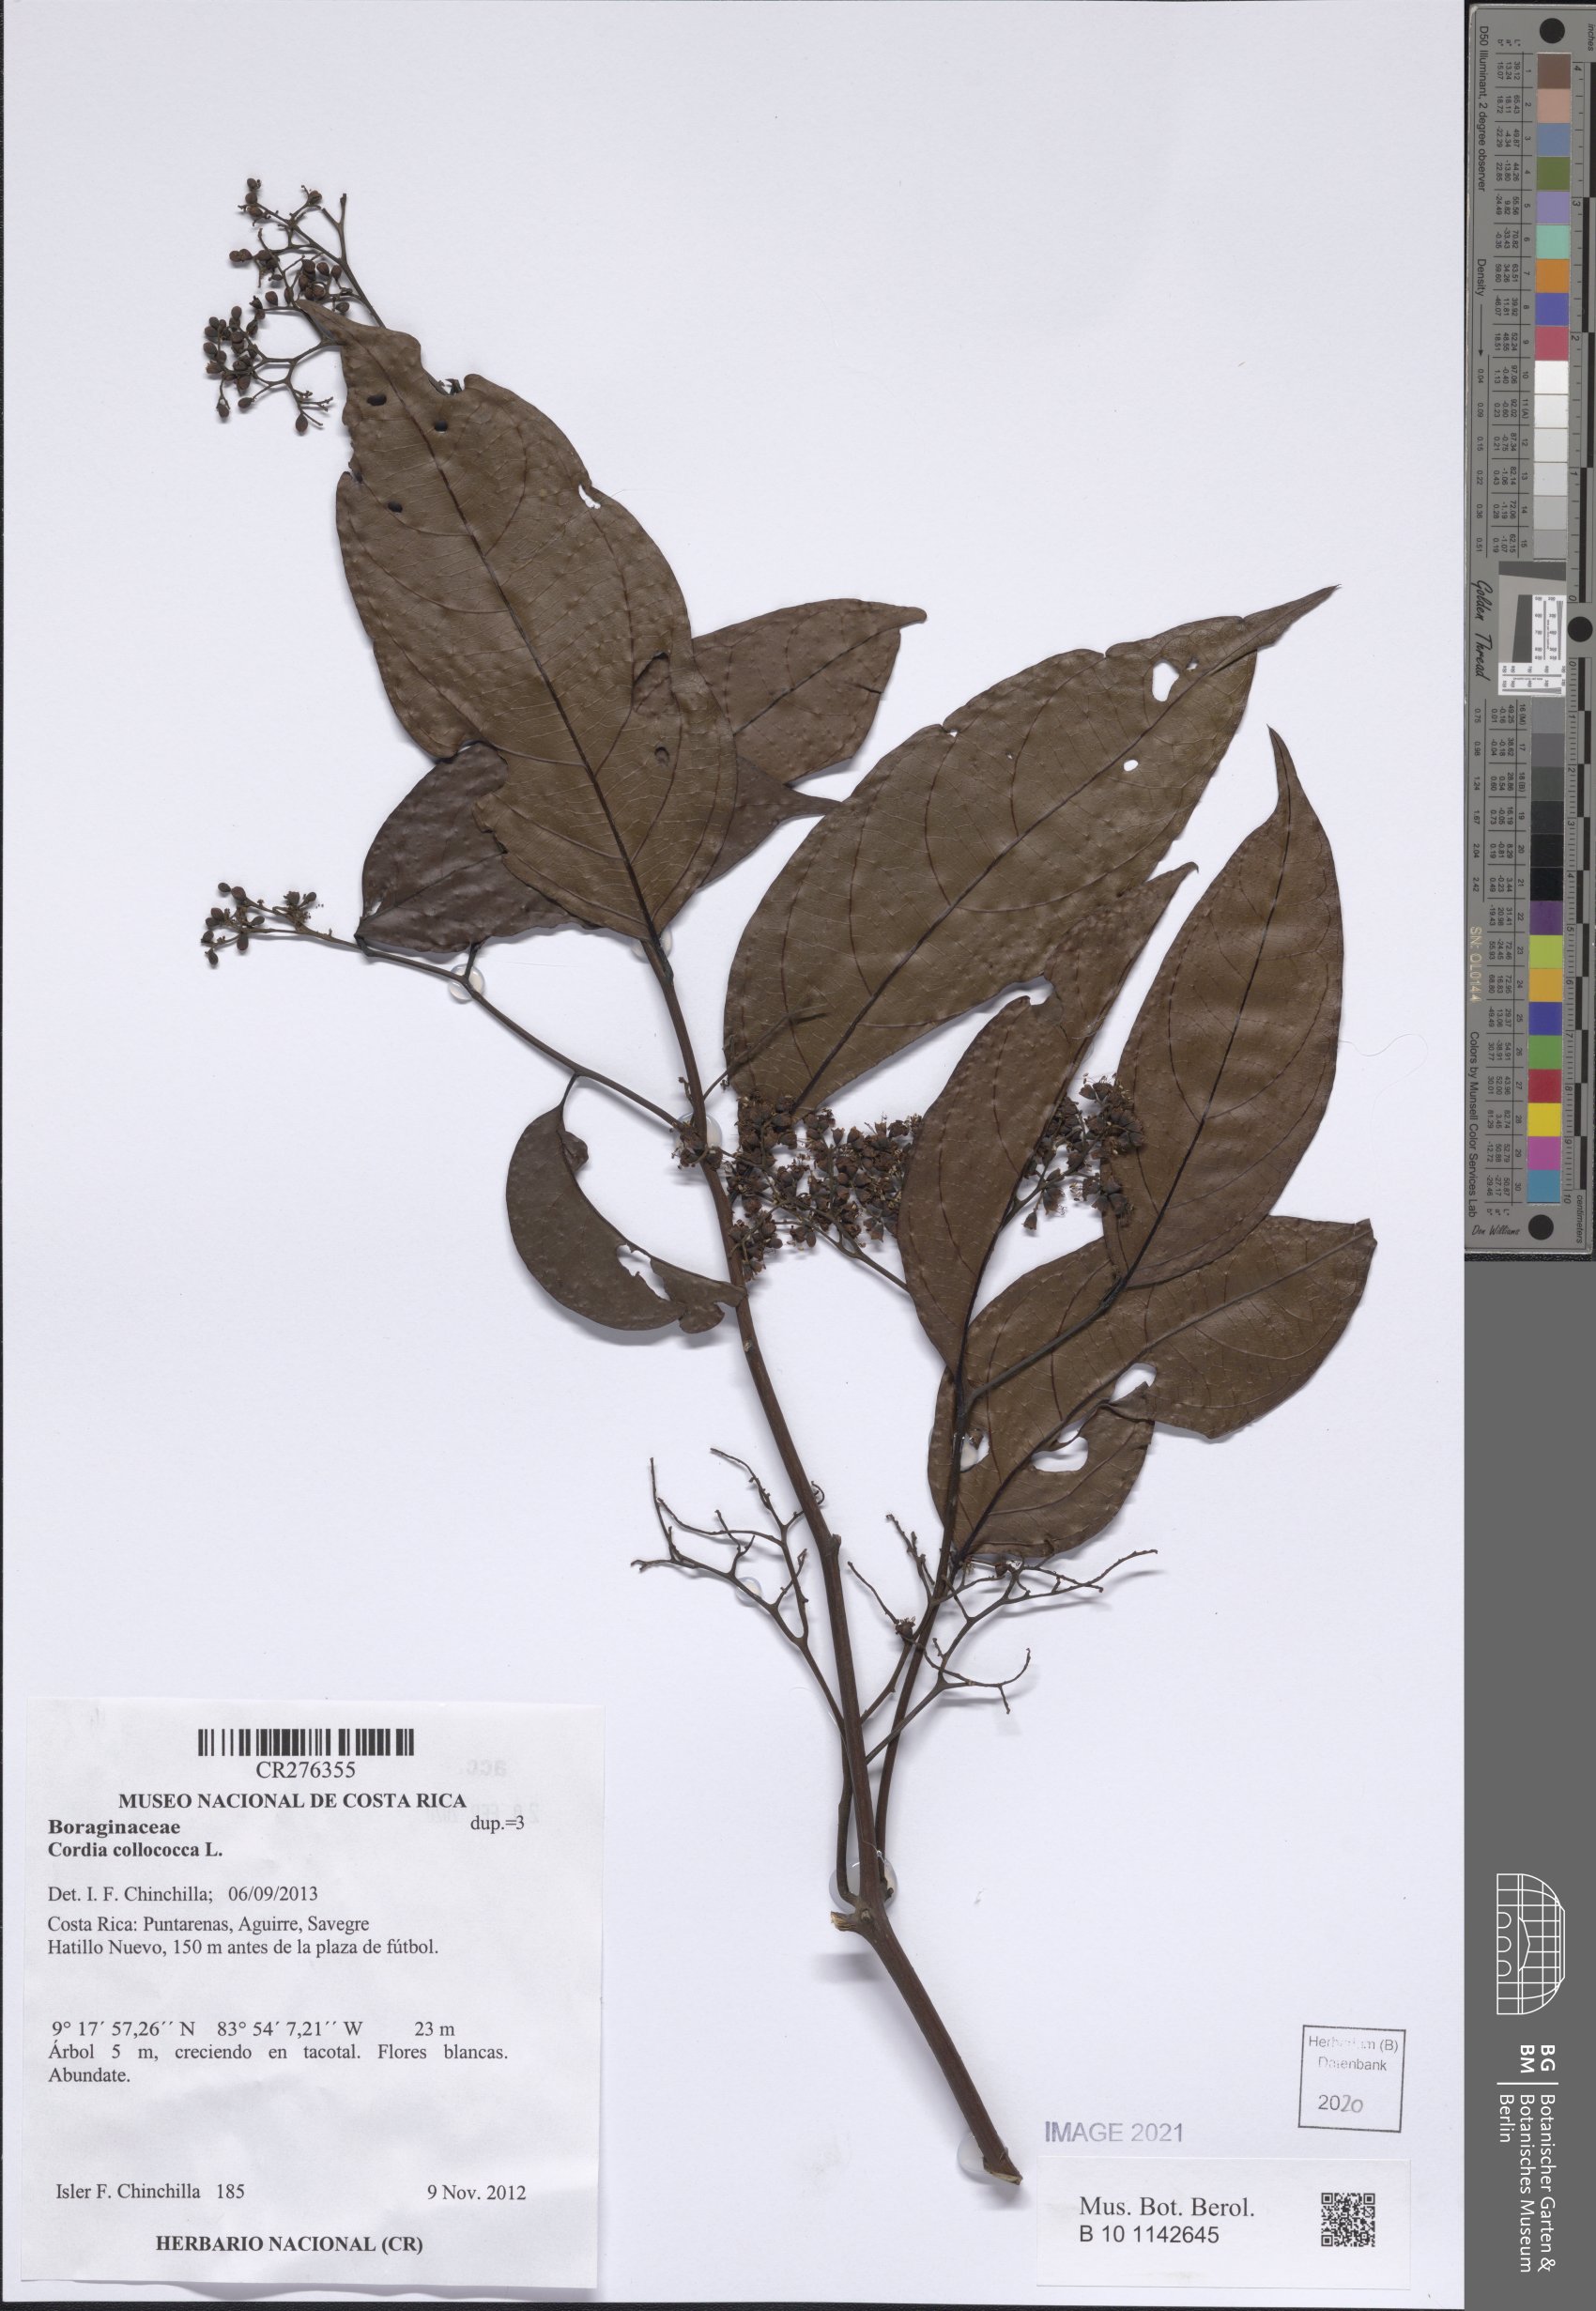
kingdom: Plantae
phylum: Tracheophyta
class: Magnoliopsida
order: Boraginales
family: Cordiaceae
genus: Cordia
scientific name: Cordia collococca
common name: Clammy cherry
